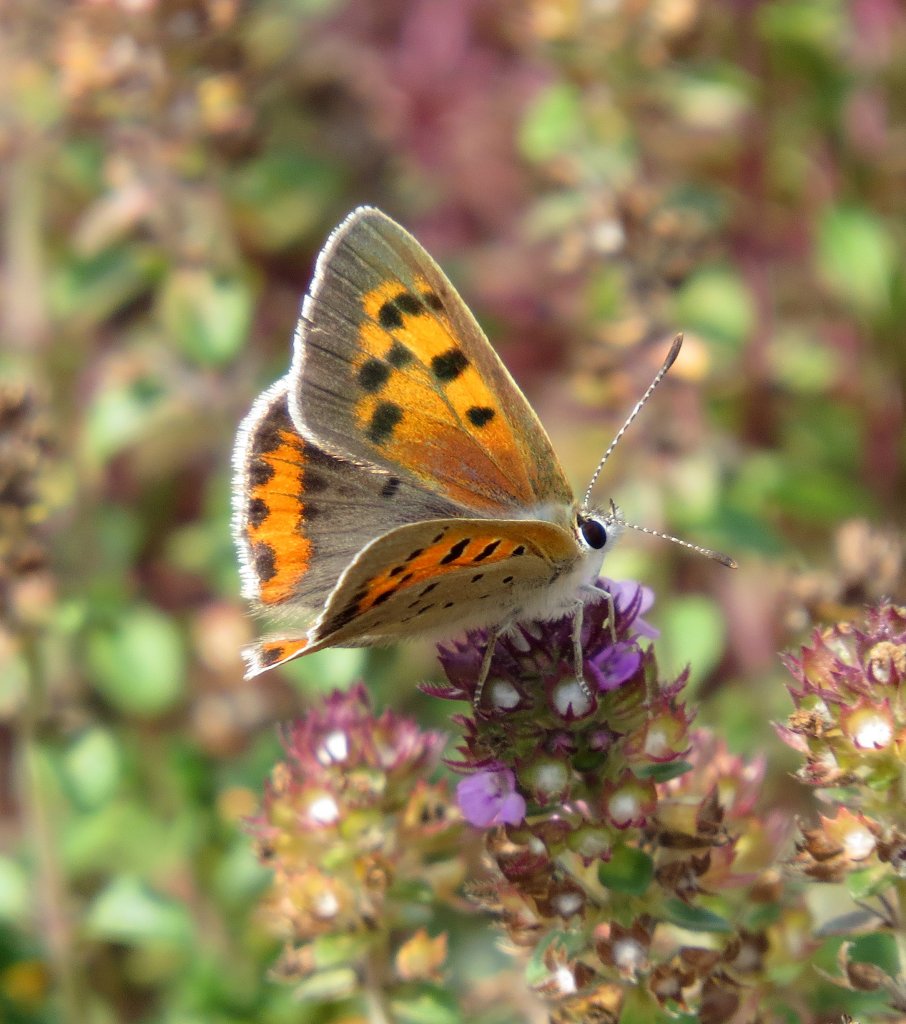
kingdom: Animalia
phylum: Arthropoda
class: Insecta
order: Lepidoptera
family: Lycaenidae
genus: Lycaena
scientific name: Lycaena phlaeas
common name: American Copper
